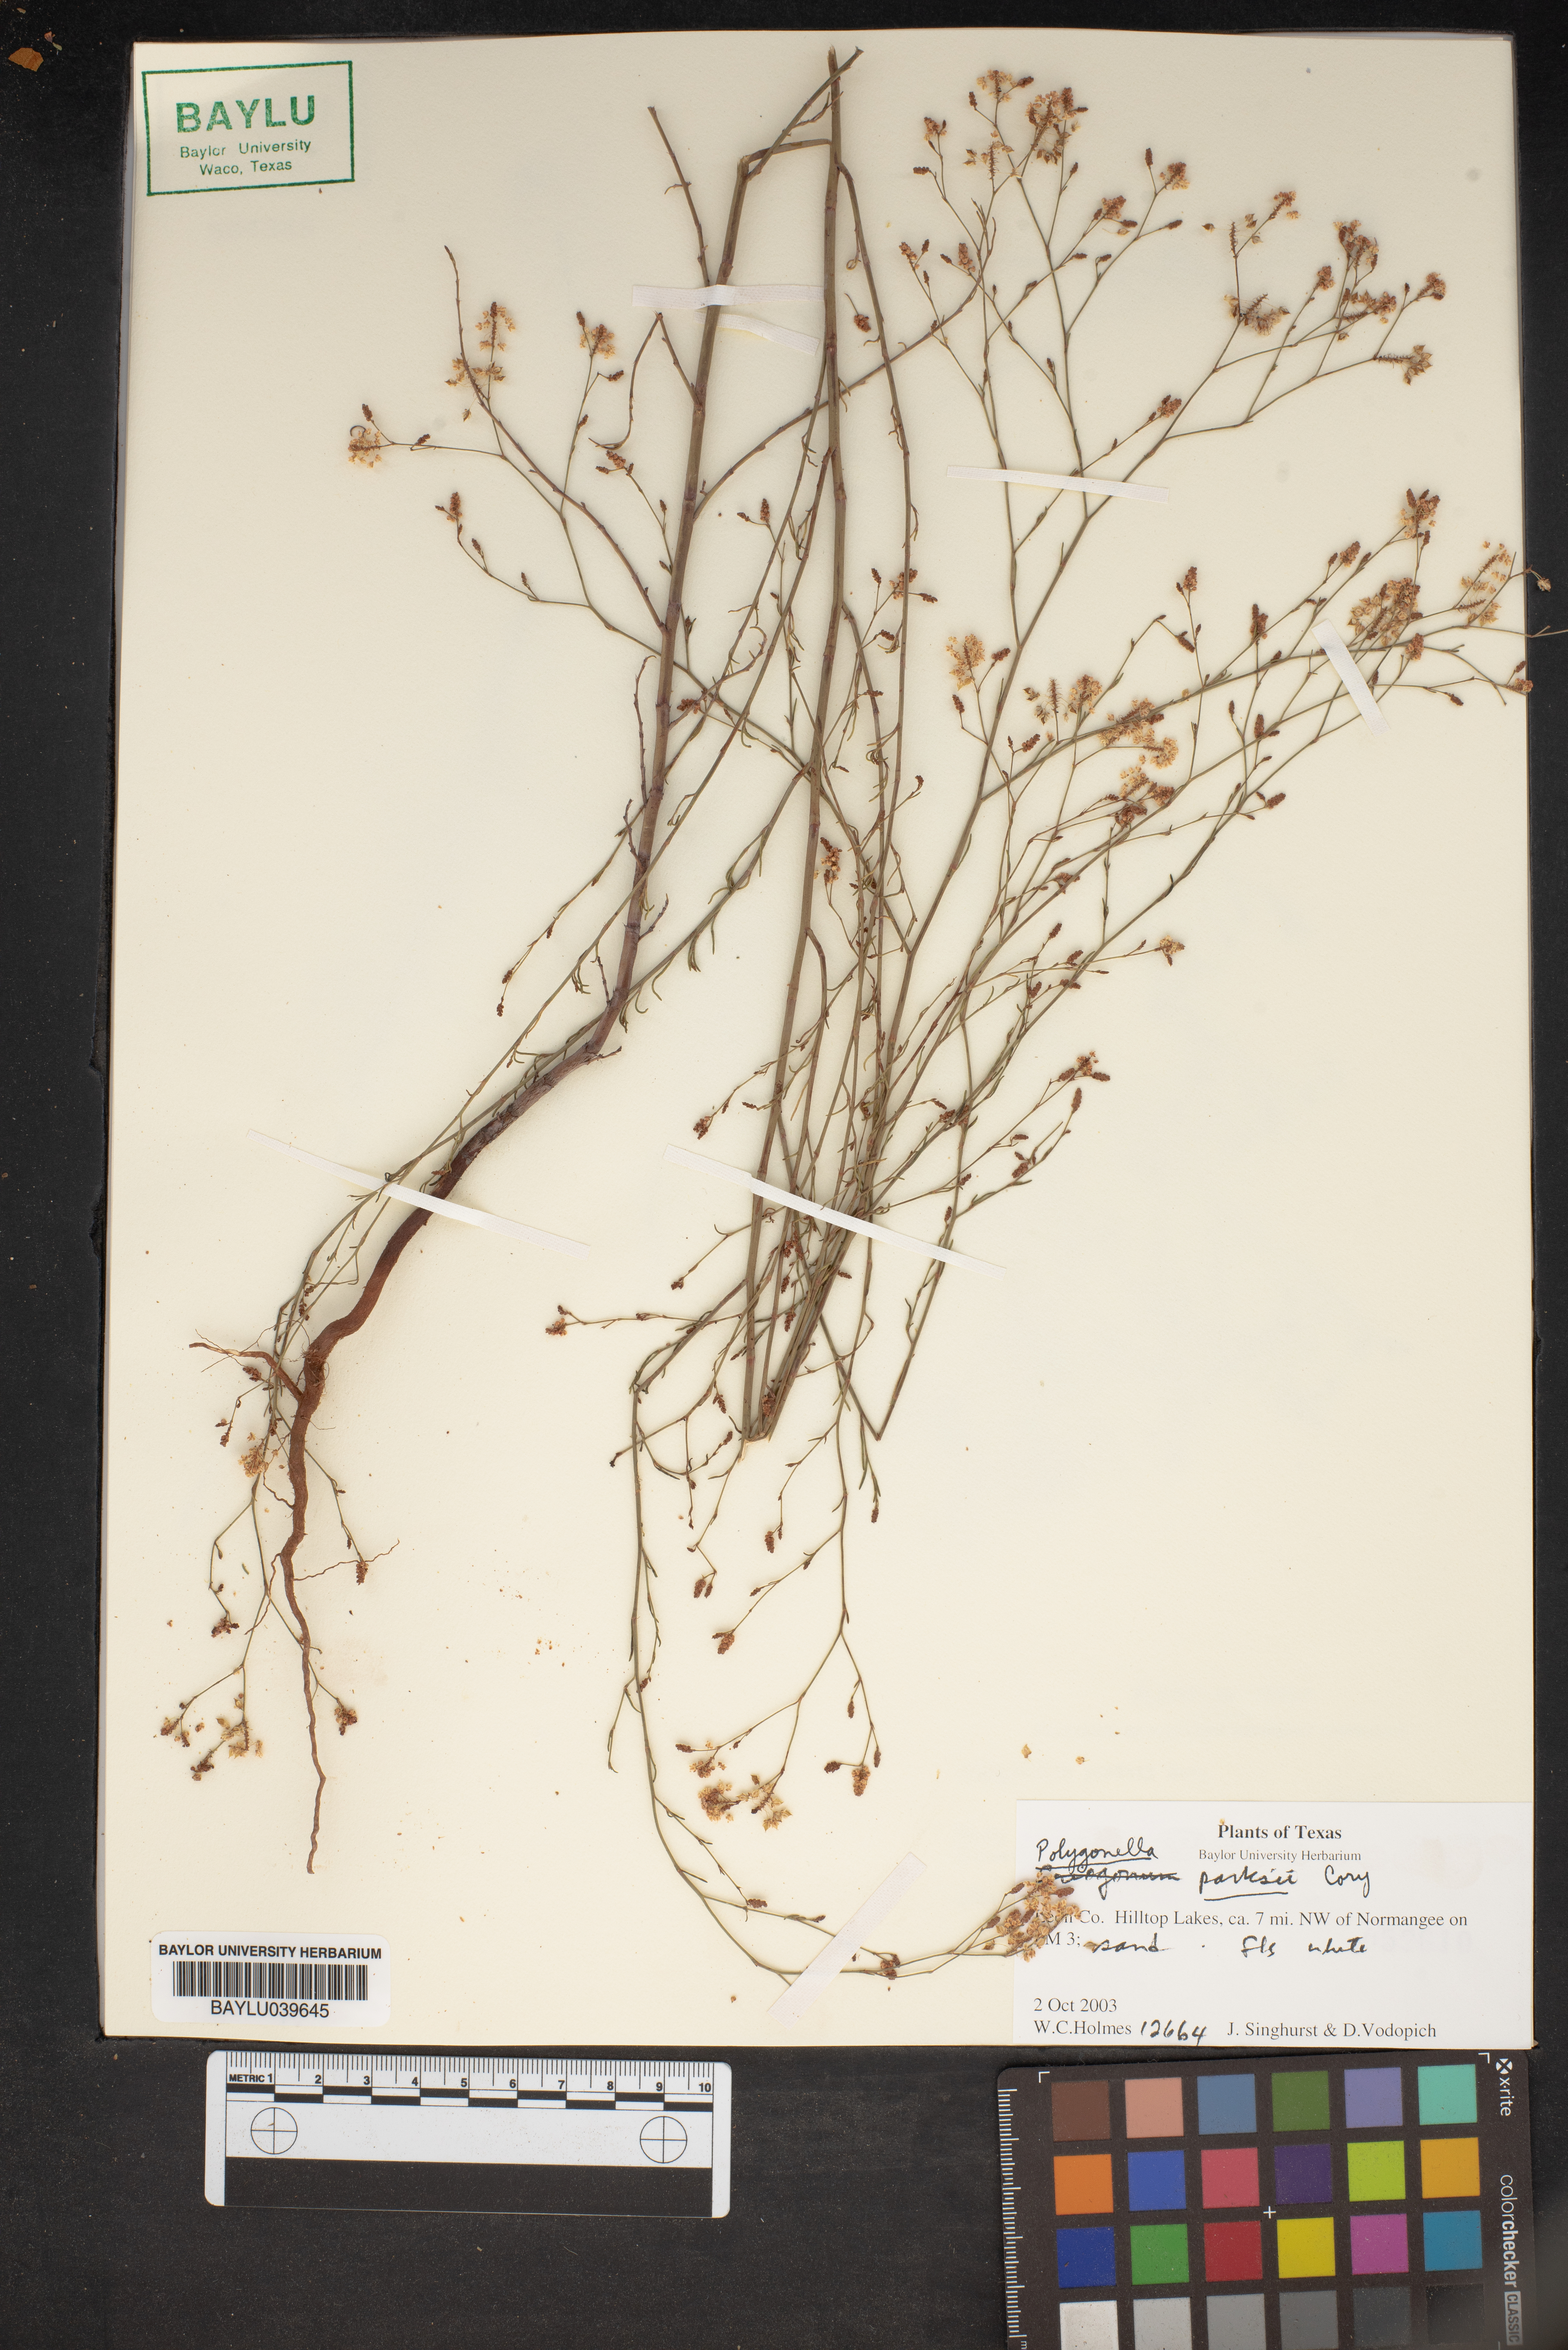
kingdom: Plantae
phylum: Tracheophyta
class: Magnoliopsida
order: Caryophyllales
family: Polygonaceae
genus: Polygonella
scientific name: Polygonella parksii
